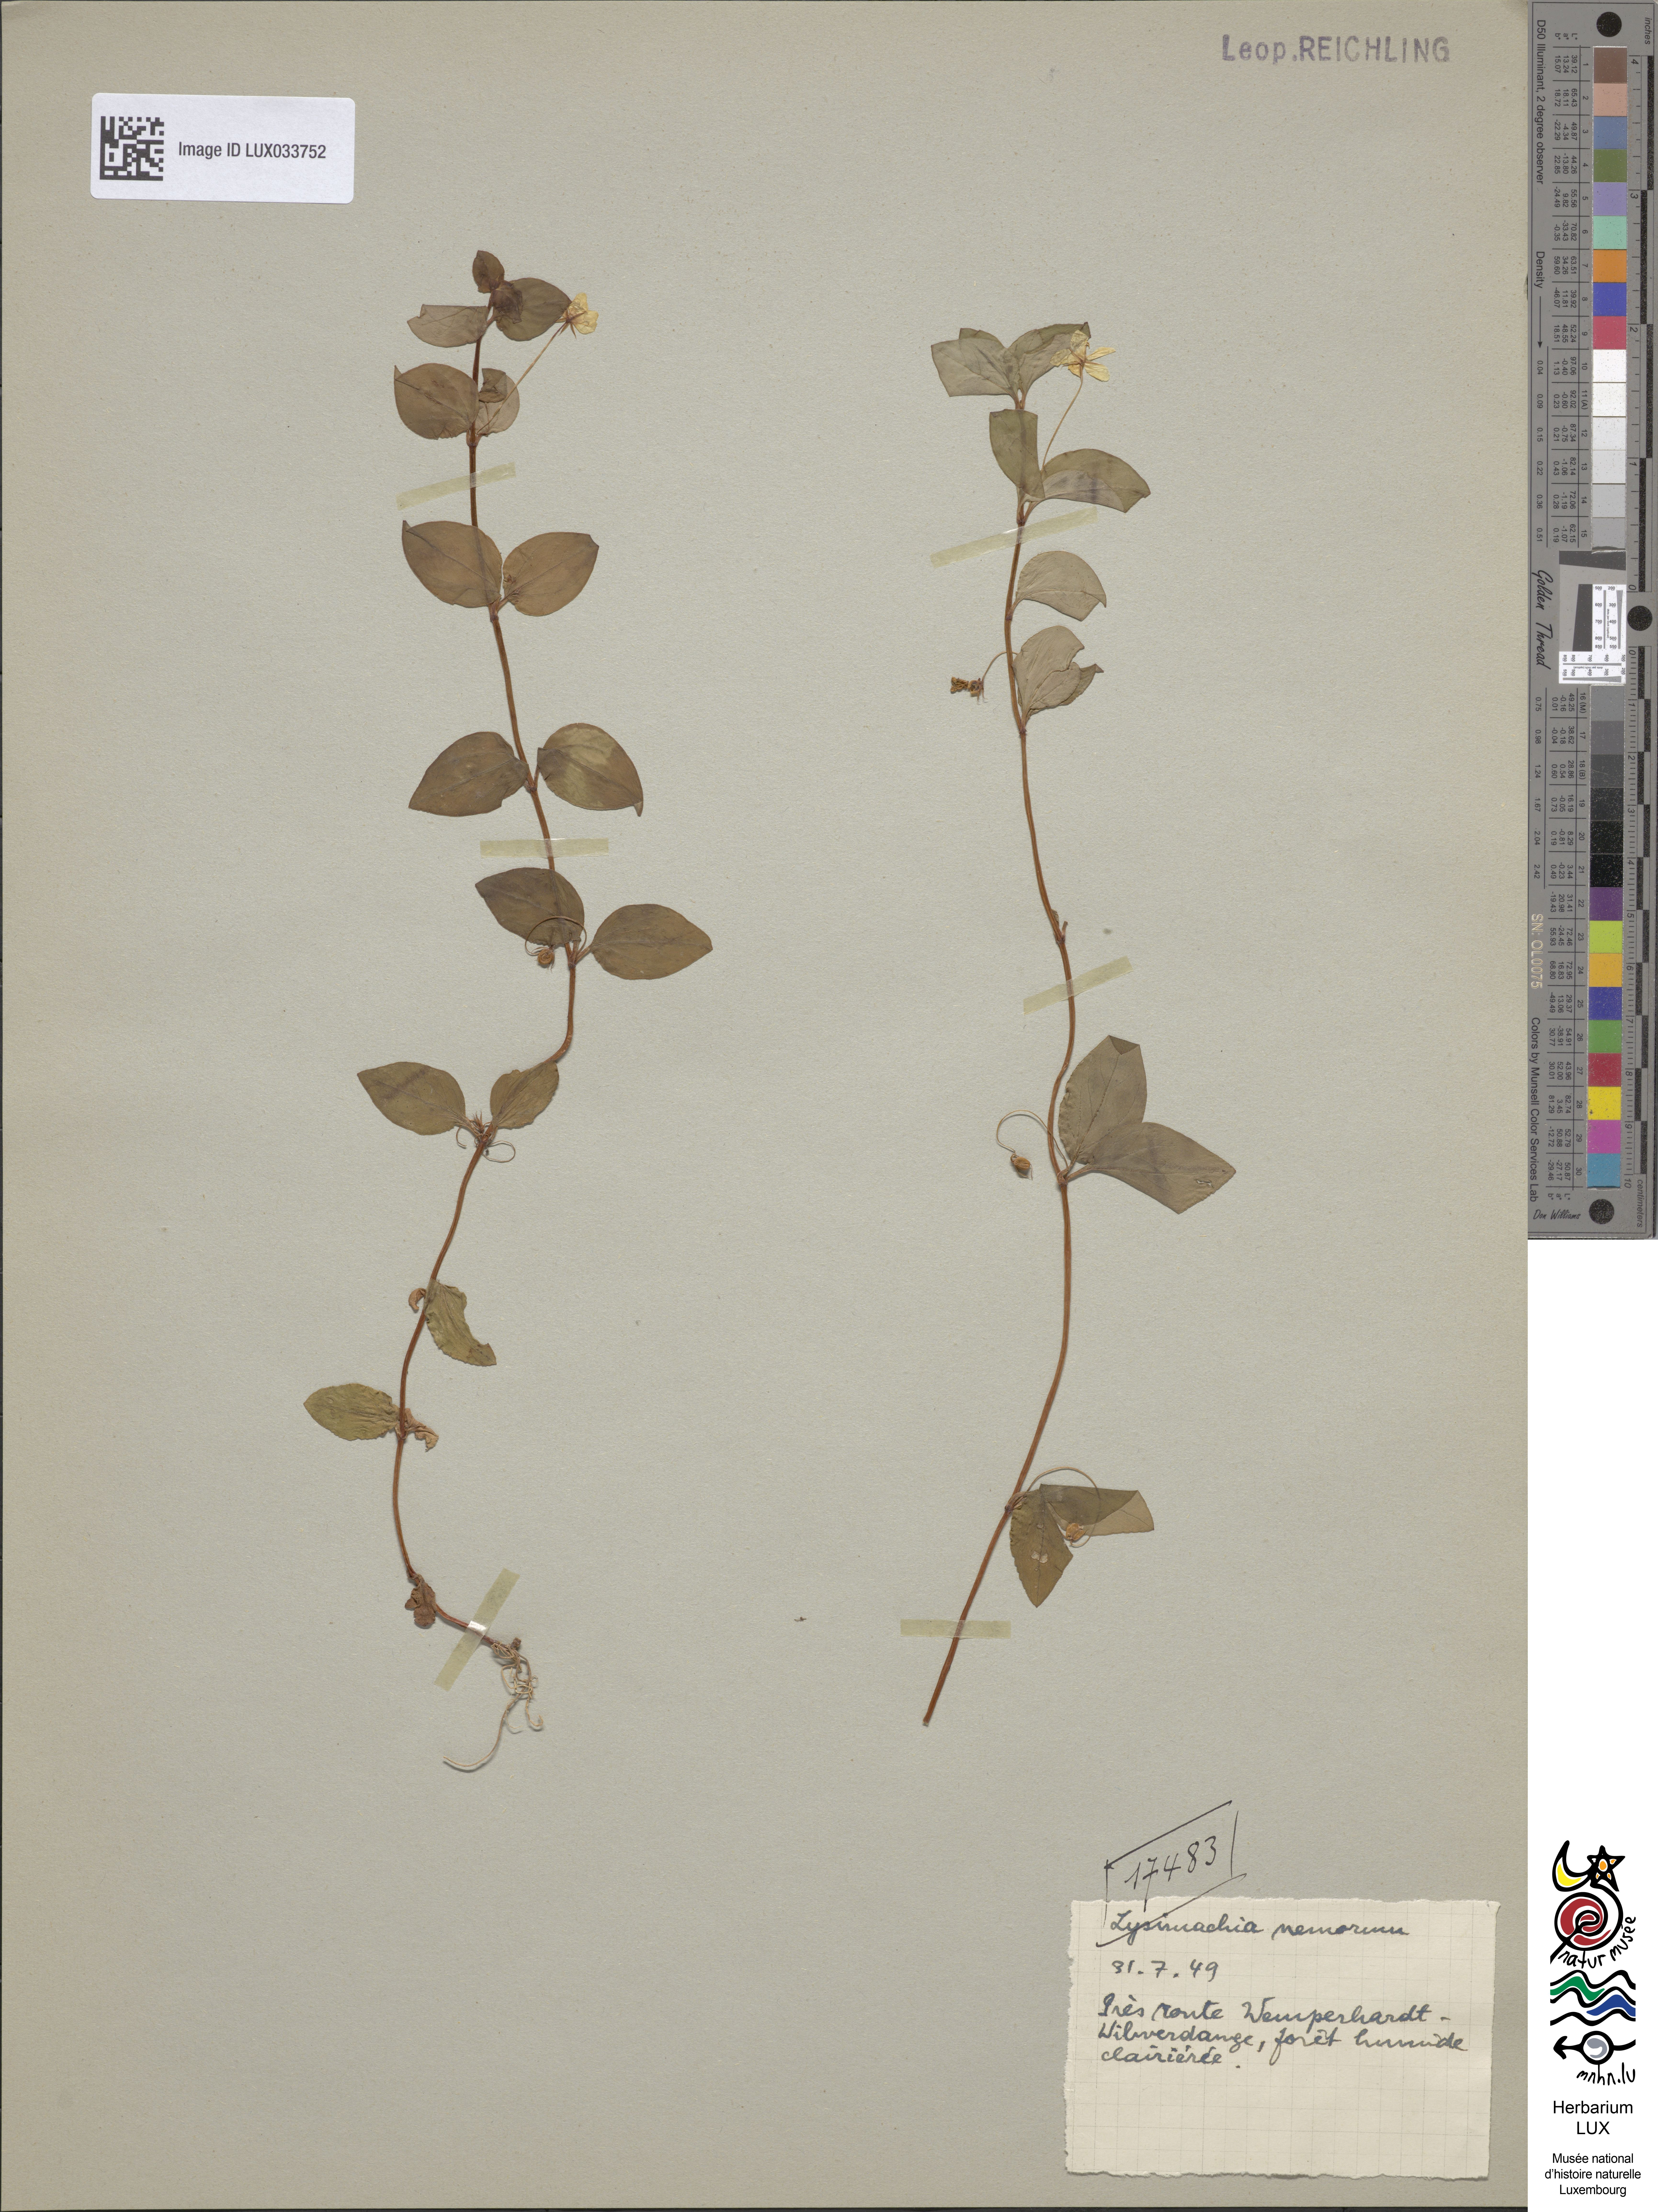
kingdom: Plantae
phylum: Tracheophyta
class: Magnoliopsida
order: Ericales
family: Primulaceae
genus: Lysimachia
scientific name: Lysimachia nemorum
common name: Yellow pimpernel
